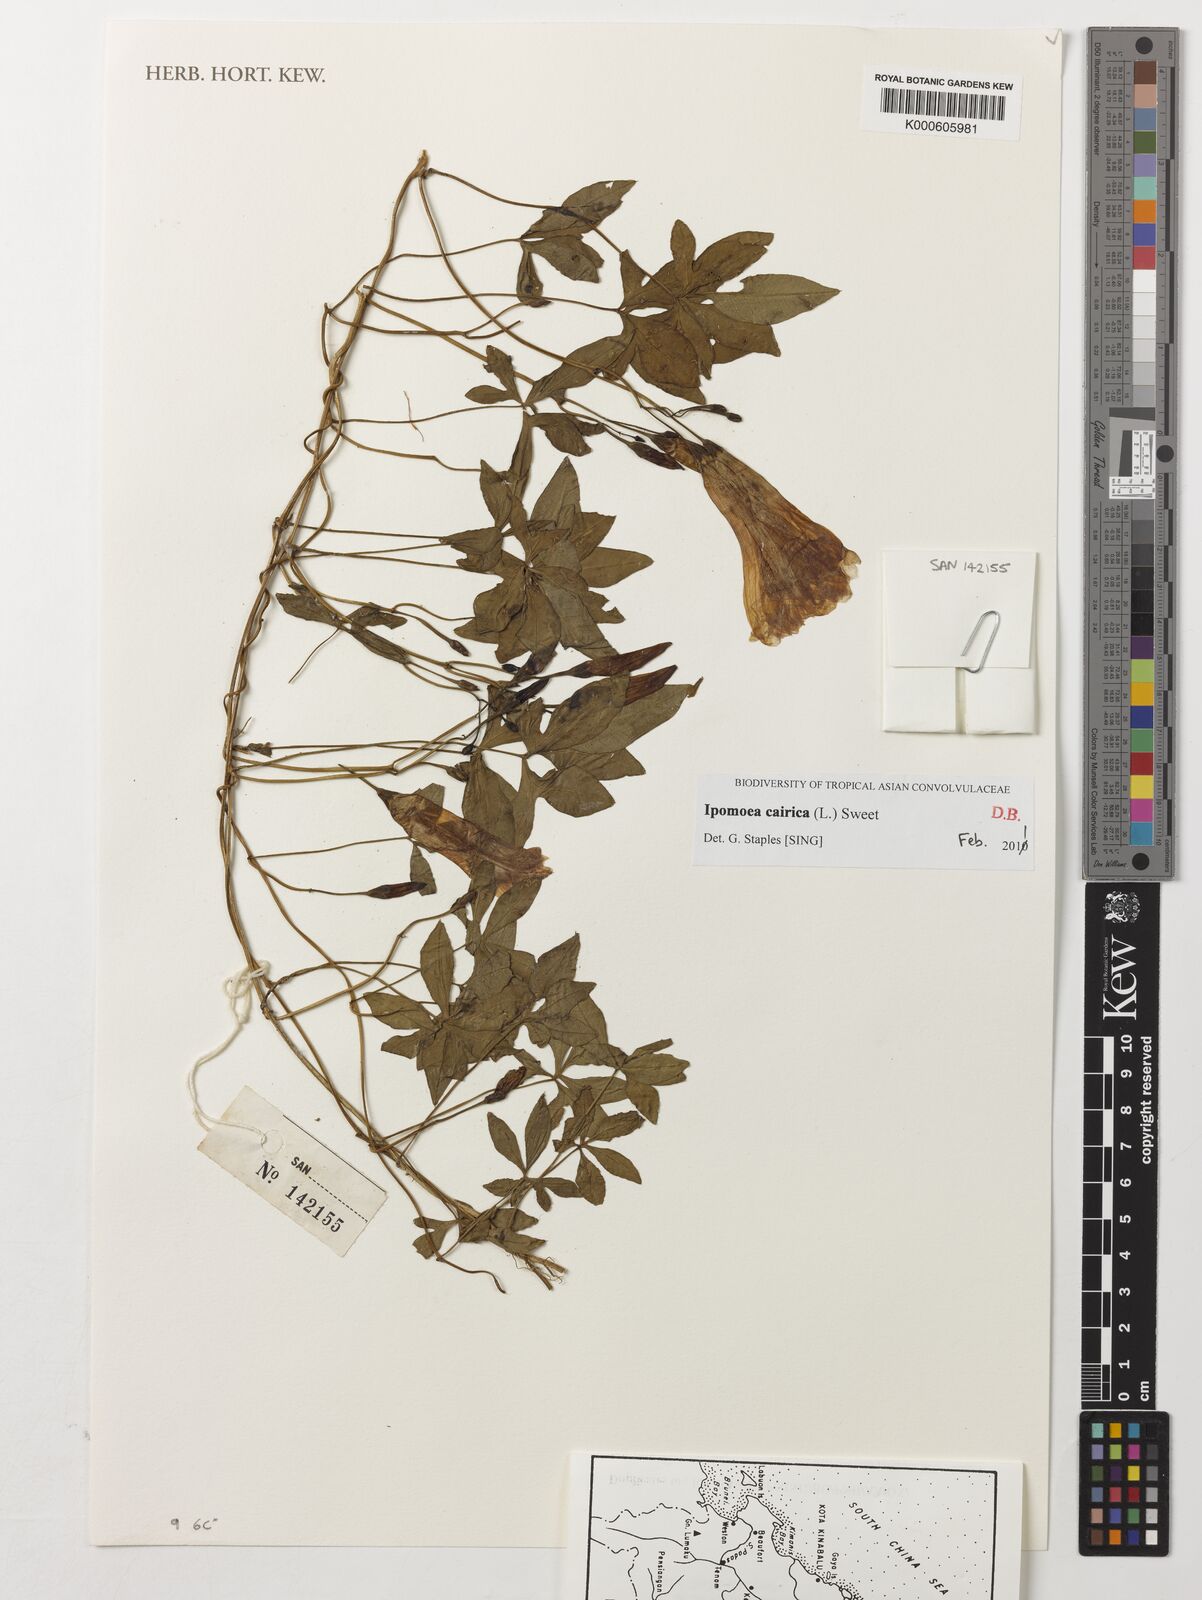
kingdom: Plantae
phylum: Tracheophyta
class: Magnoliopsida
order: Solanales
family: Convolvulaceae
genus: Ipomoea
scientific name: Ipomoea cairica
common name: Mile a minute vine
